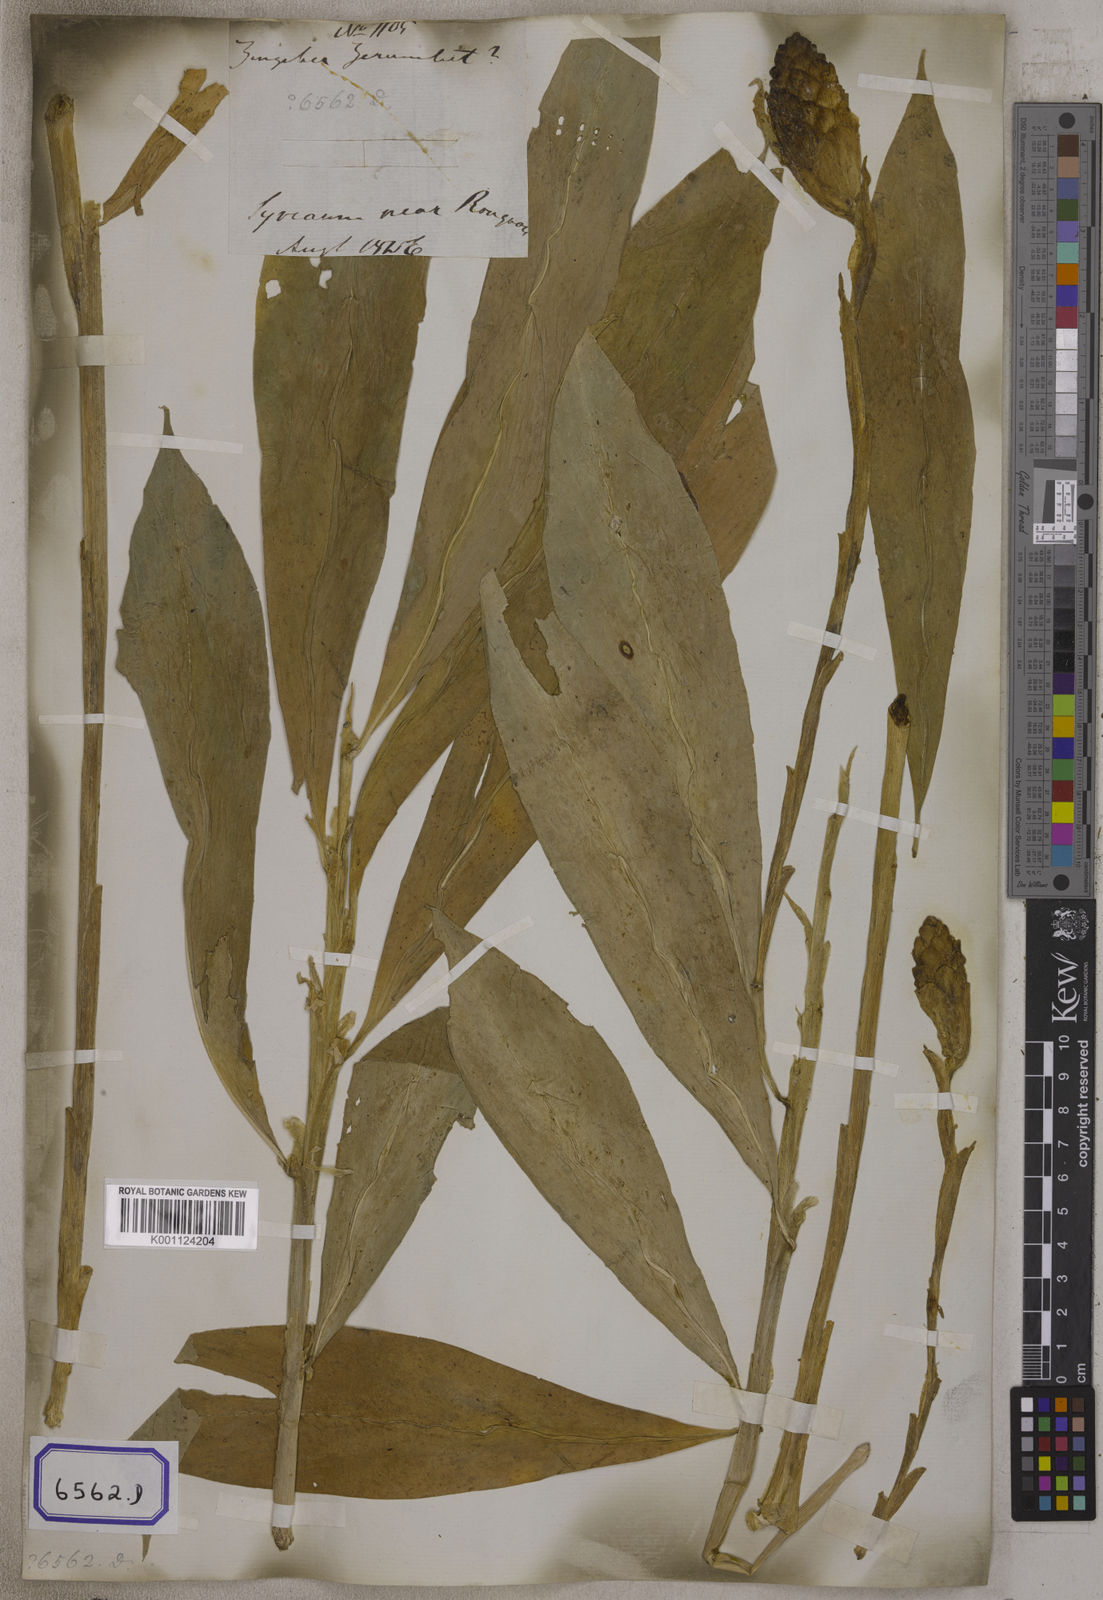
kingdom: Plantae
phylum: Tracheophyta
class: Liliopsida
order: Zingiberales
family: Zingiberaceae
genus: Zingiber
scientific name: Zingiber zerumbet
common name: Bitter ginger
